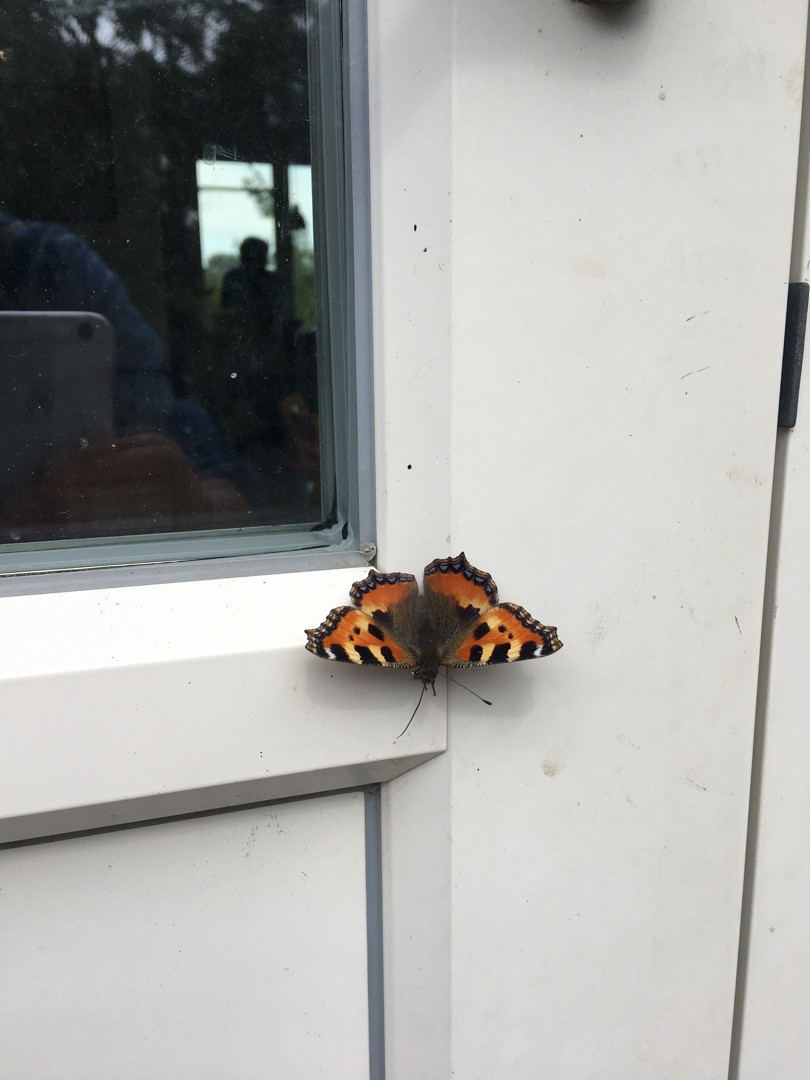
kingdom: Animalia
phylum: Arthropoda
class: Insecta
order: Lepidoptera
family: Nymphalidae
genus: Aglais
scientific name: Aglais urticae
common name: Nældens takvinge
